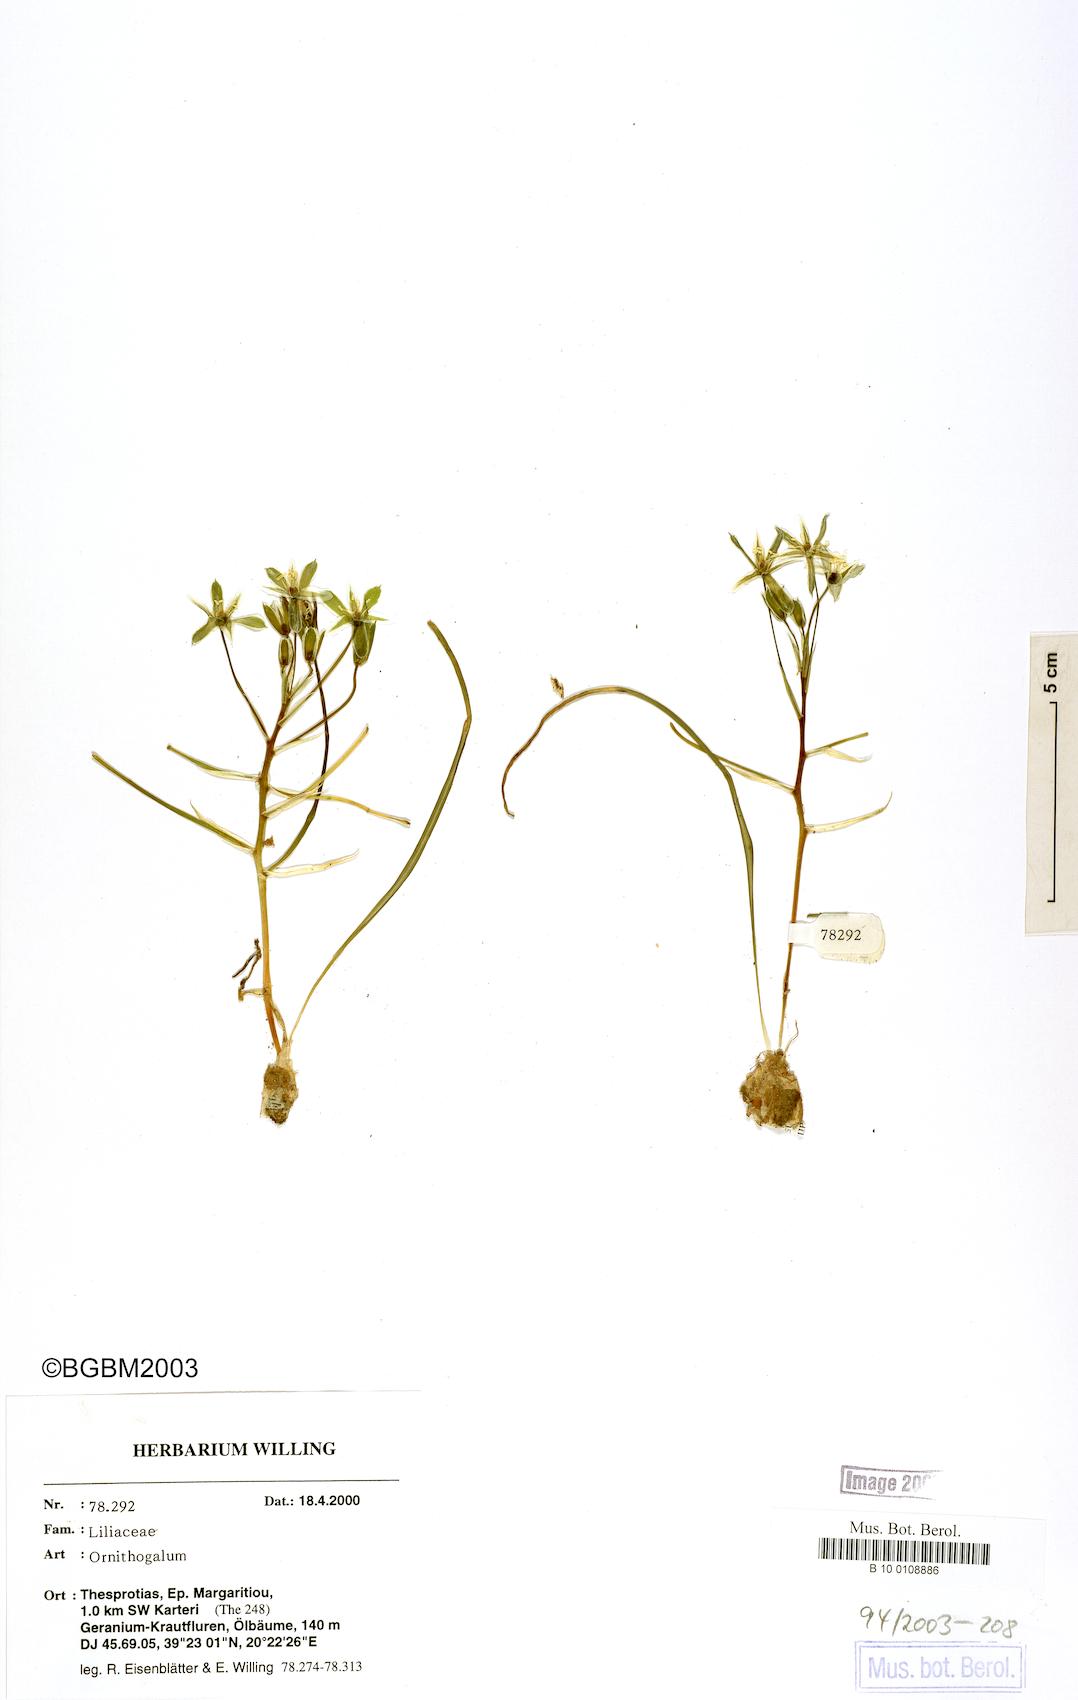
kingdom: Plantae
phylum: Tracheophyta
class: Liliopsida
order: Asparagales
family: Asparagaceae
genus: Ornithogalum
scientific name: Ornithogalum
